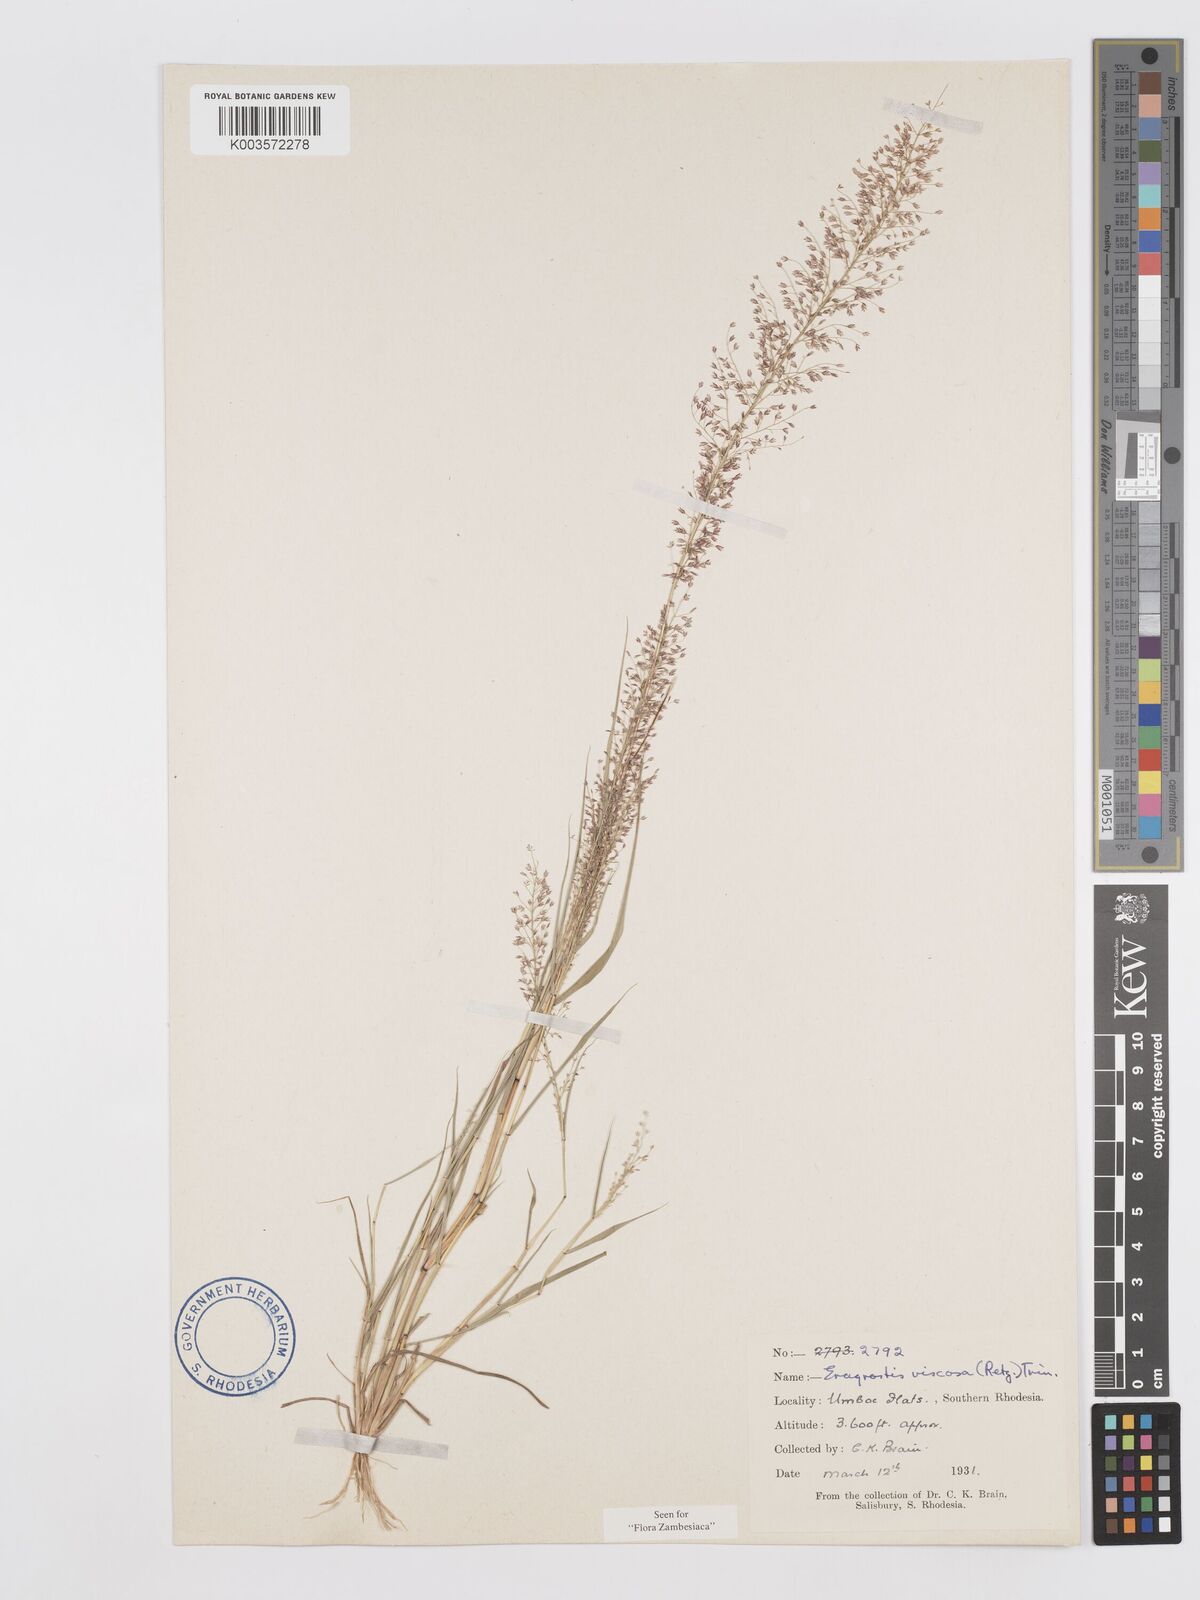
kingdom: Plantae
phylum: Tracheophyta
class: Liliopsida
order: Poales
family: Poaceae
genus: Eragrostis
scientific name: Eragrostis
